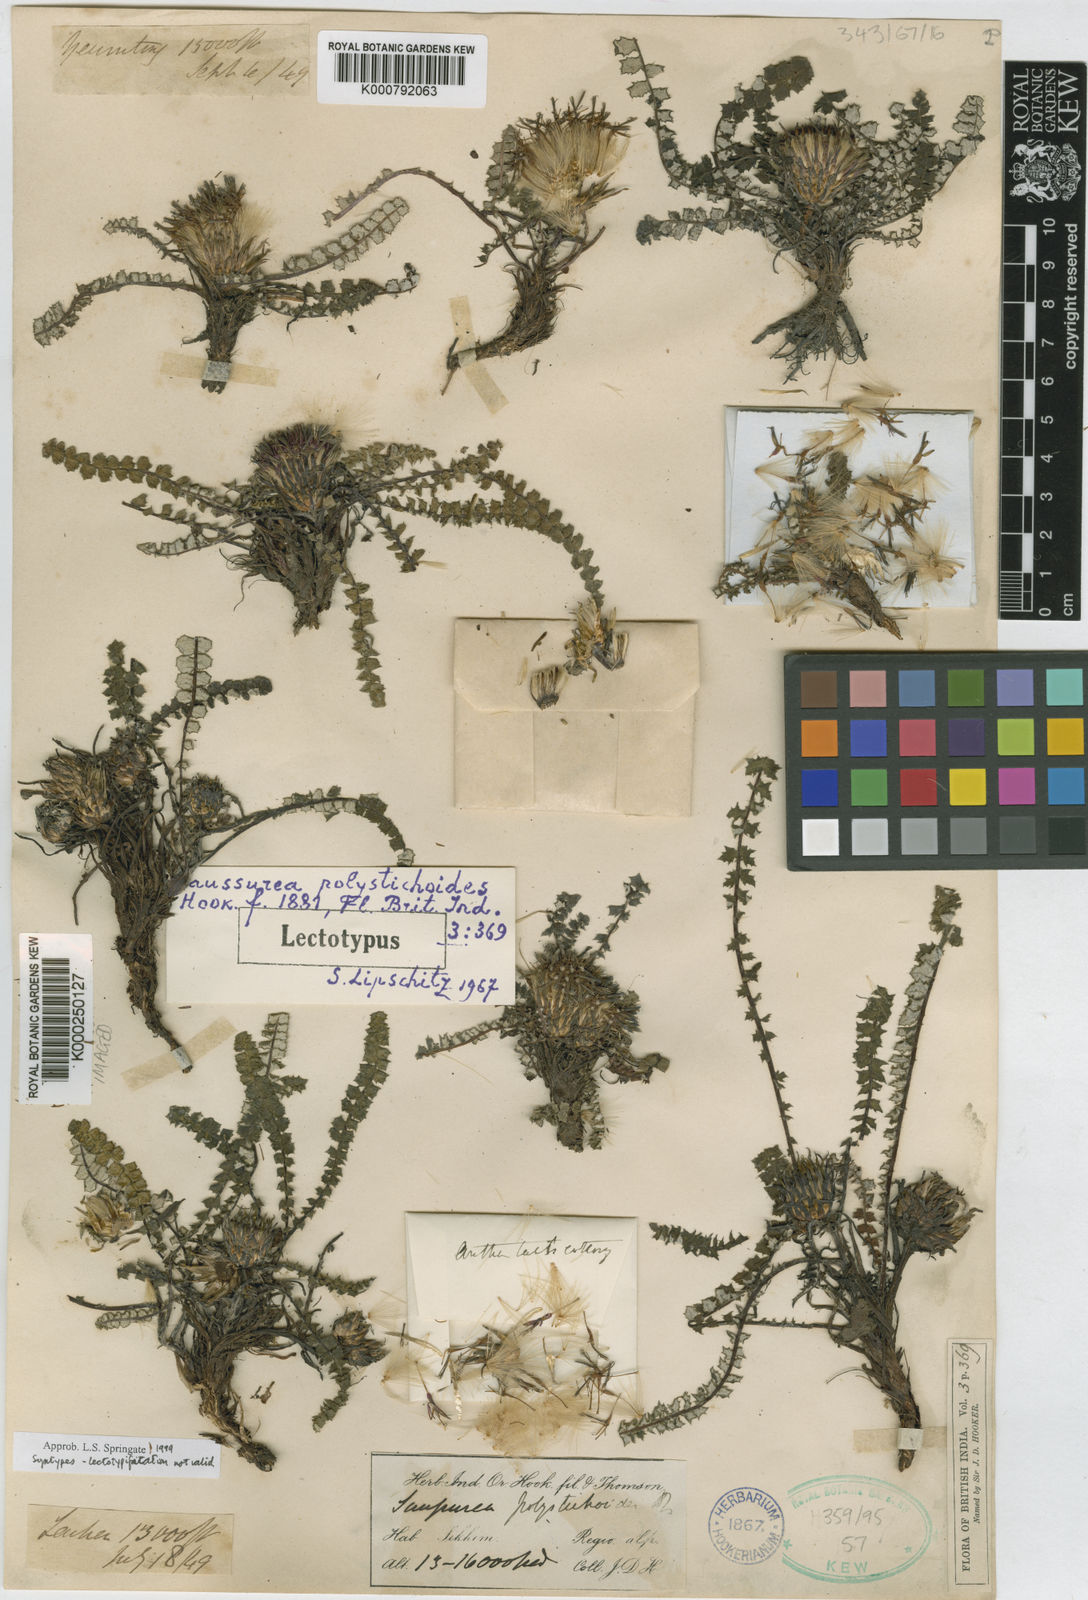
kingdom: Plantae
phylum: Tracheophyta
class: Magnoliopsida
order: Asterales
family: Asteraceae
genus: Saussurea
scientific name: Saussurea polystichoides
